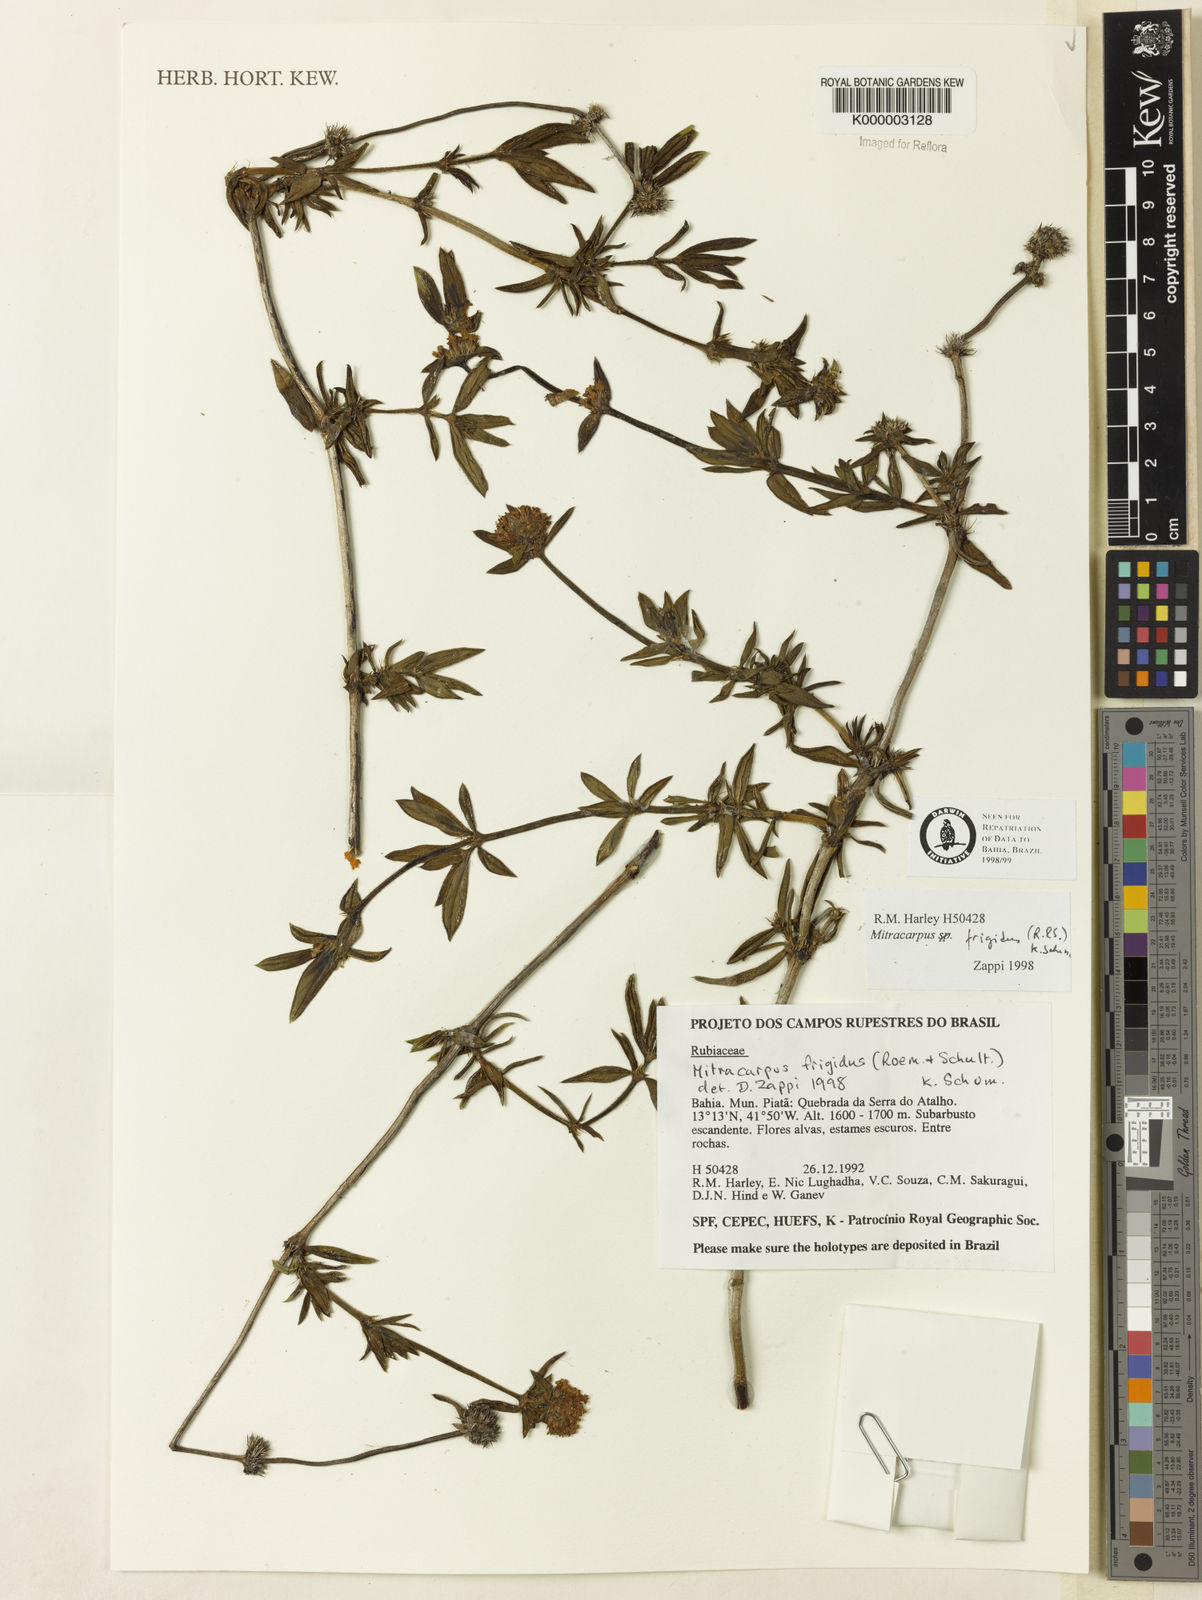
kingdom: Plantae
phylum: Tracheophyta
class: Magnoliopsida
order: Gentianales
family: Rubiaceae
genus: Mitracarpus
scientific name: Mitracarpus frigidus
